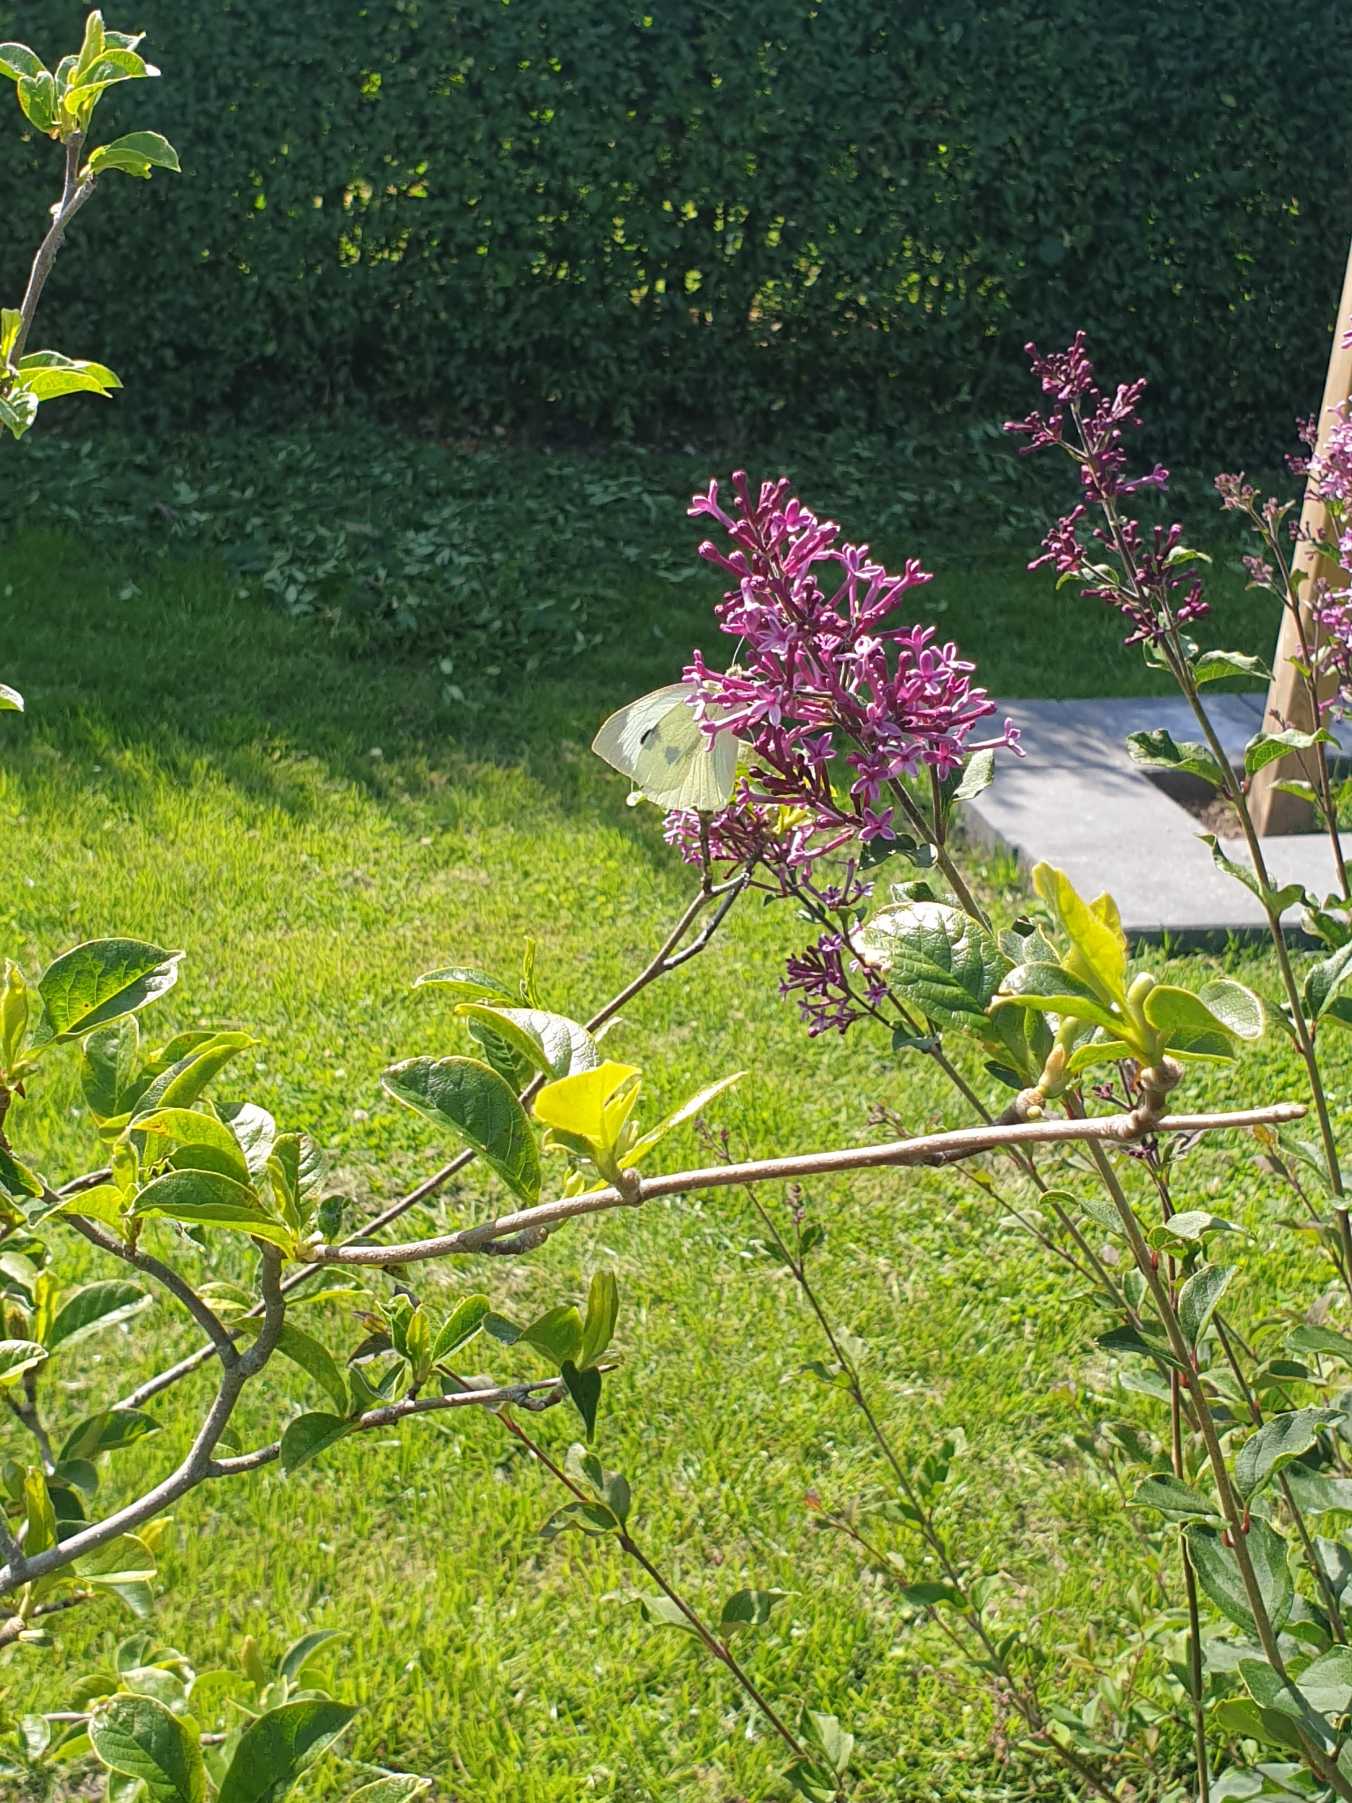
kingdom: Animalia
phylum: Arthropoda
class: Insecta
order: Lepidoptera
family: Pieridae
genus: Pieris
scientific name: Pieris brassicae
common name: Stor kålsommerfugl
